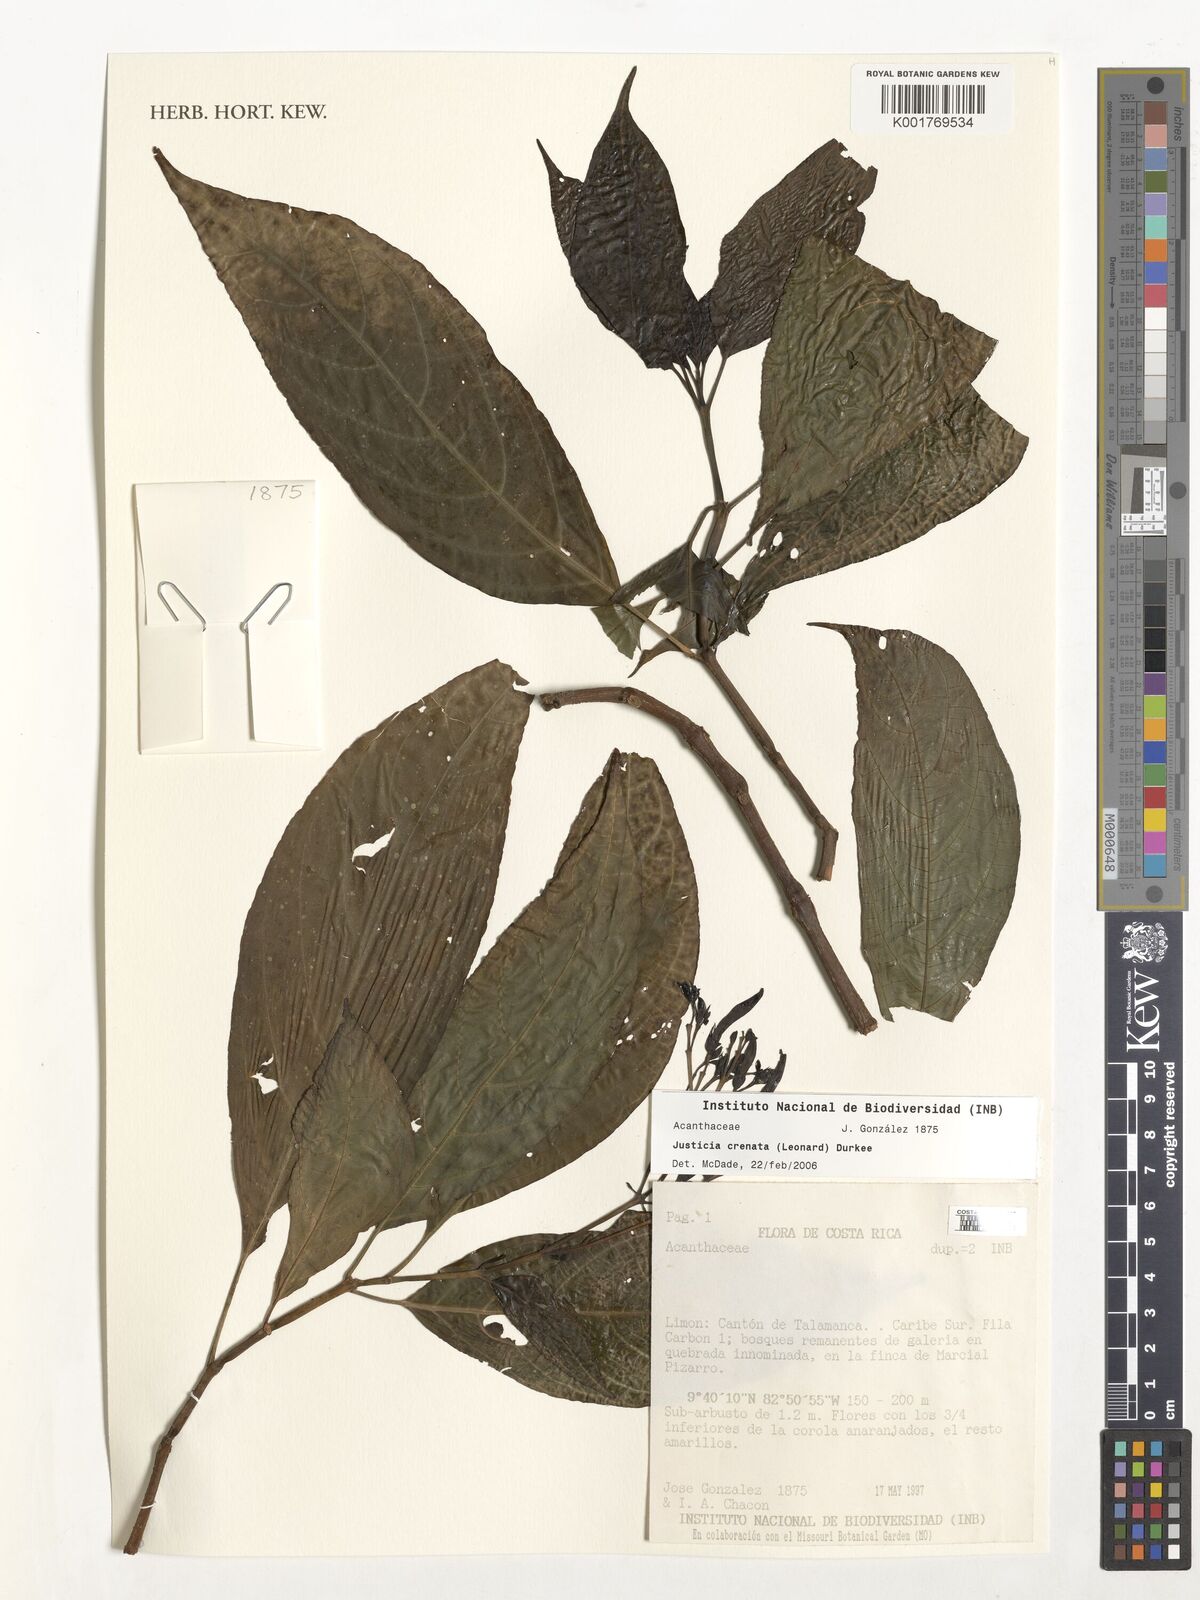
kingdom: Plantae
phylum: Tracheophyta
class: Magnoliopsida
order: Lamiales
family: Acanthaceae
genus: Justicia
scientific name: Justicia crenata
